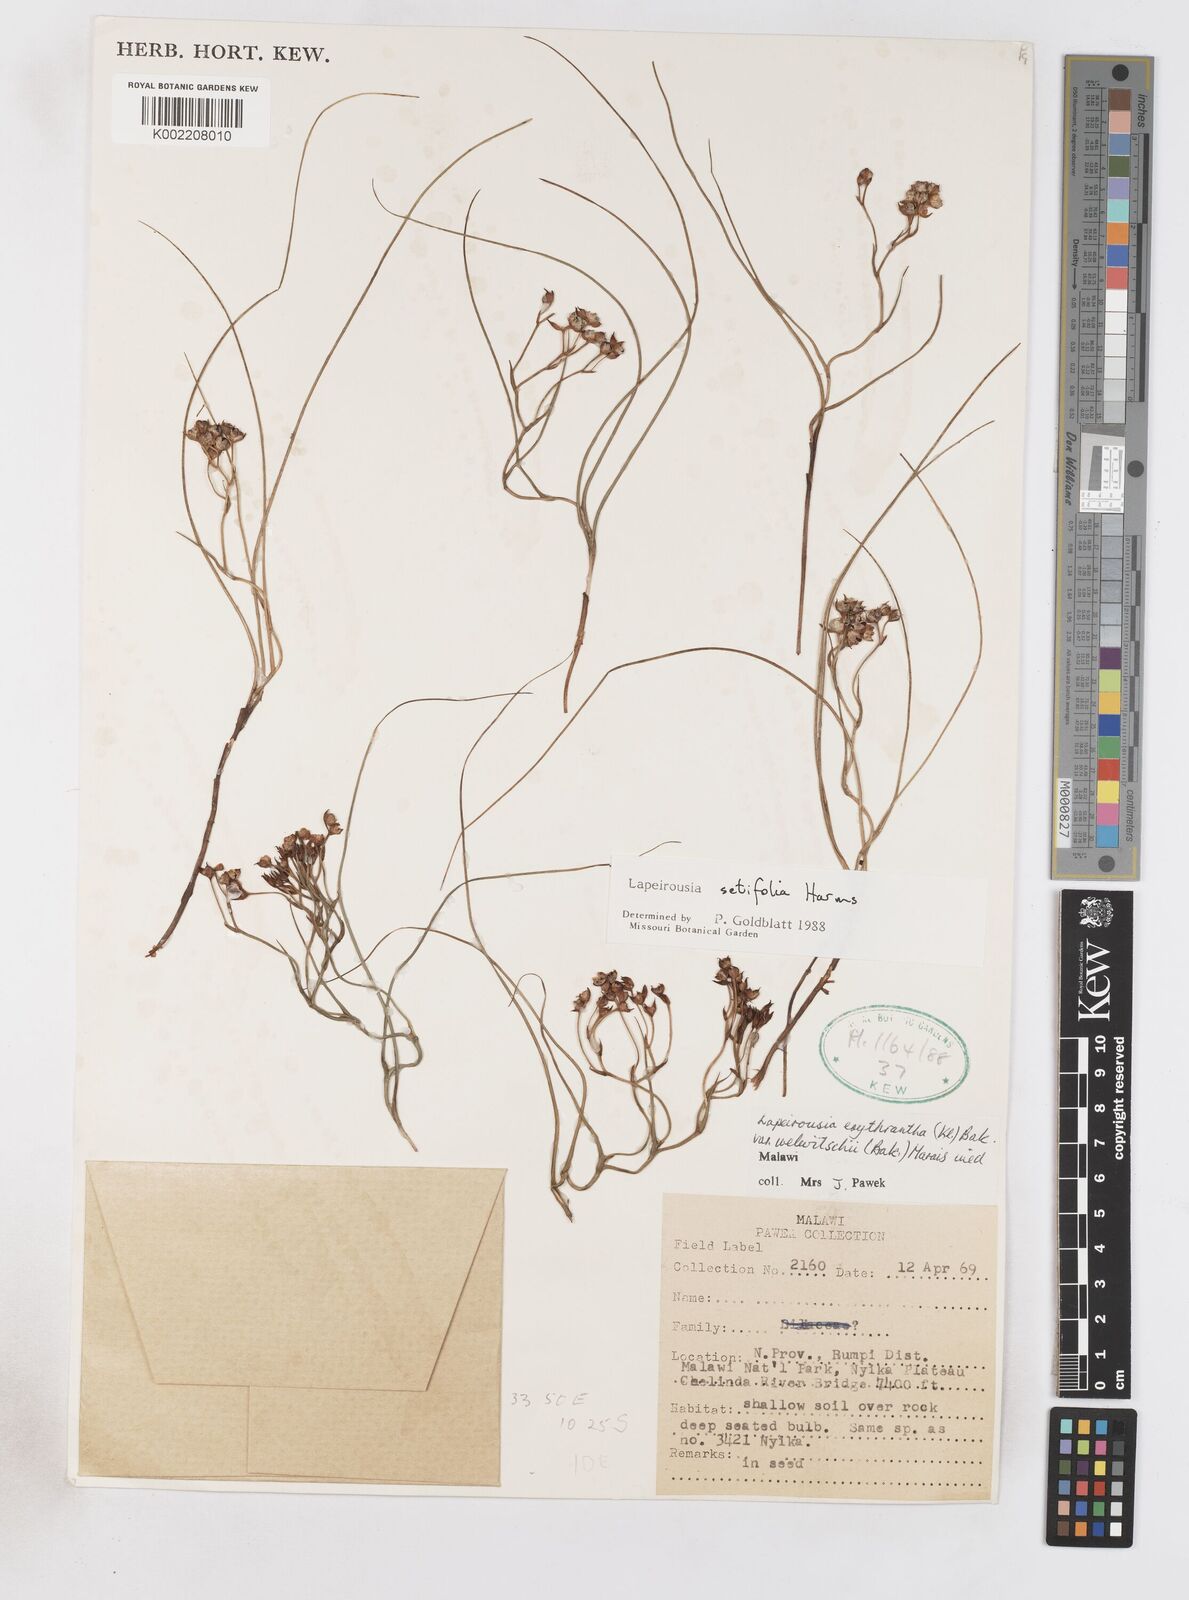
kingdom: Plantae
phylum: Tracheophyta
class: Liliopsida
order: Asparagales
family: Iridaceae
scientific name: Iridaceae
